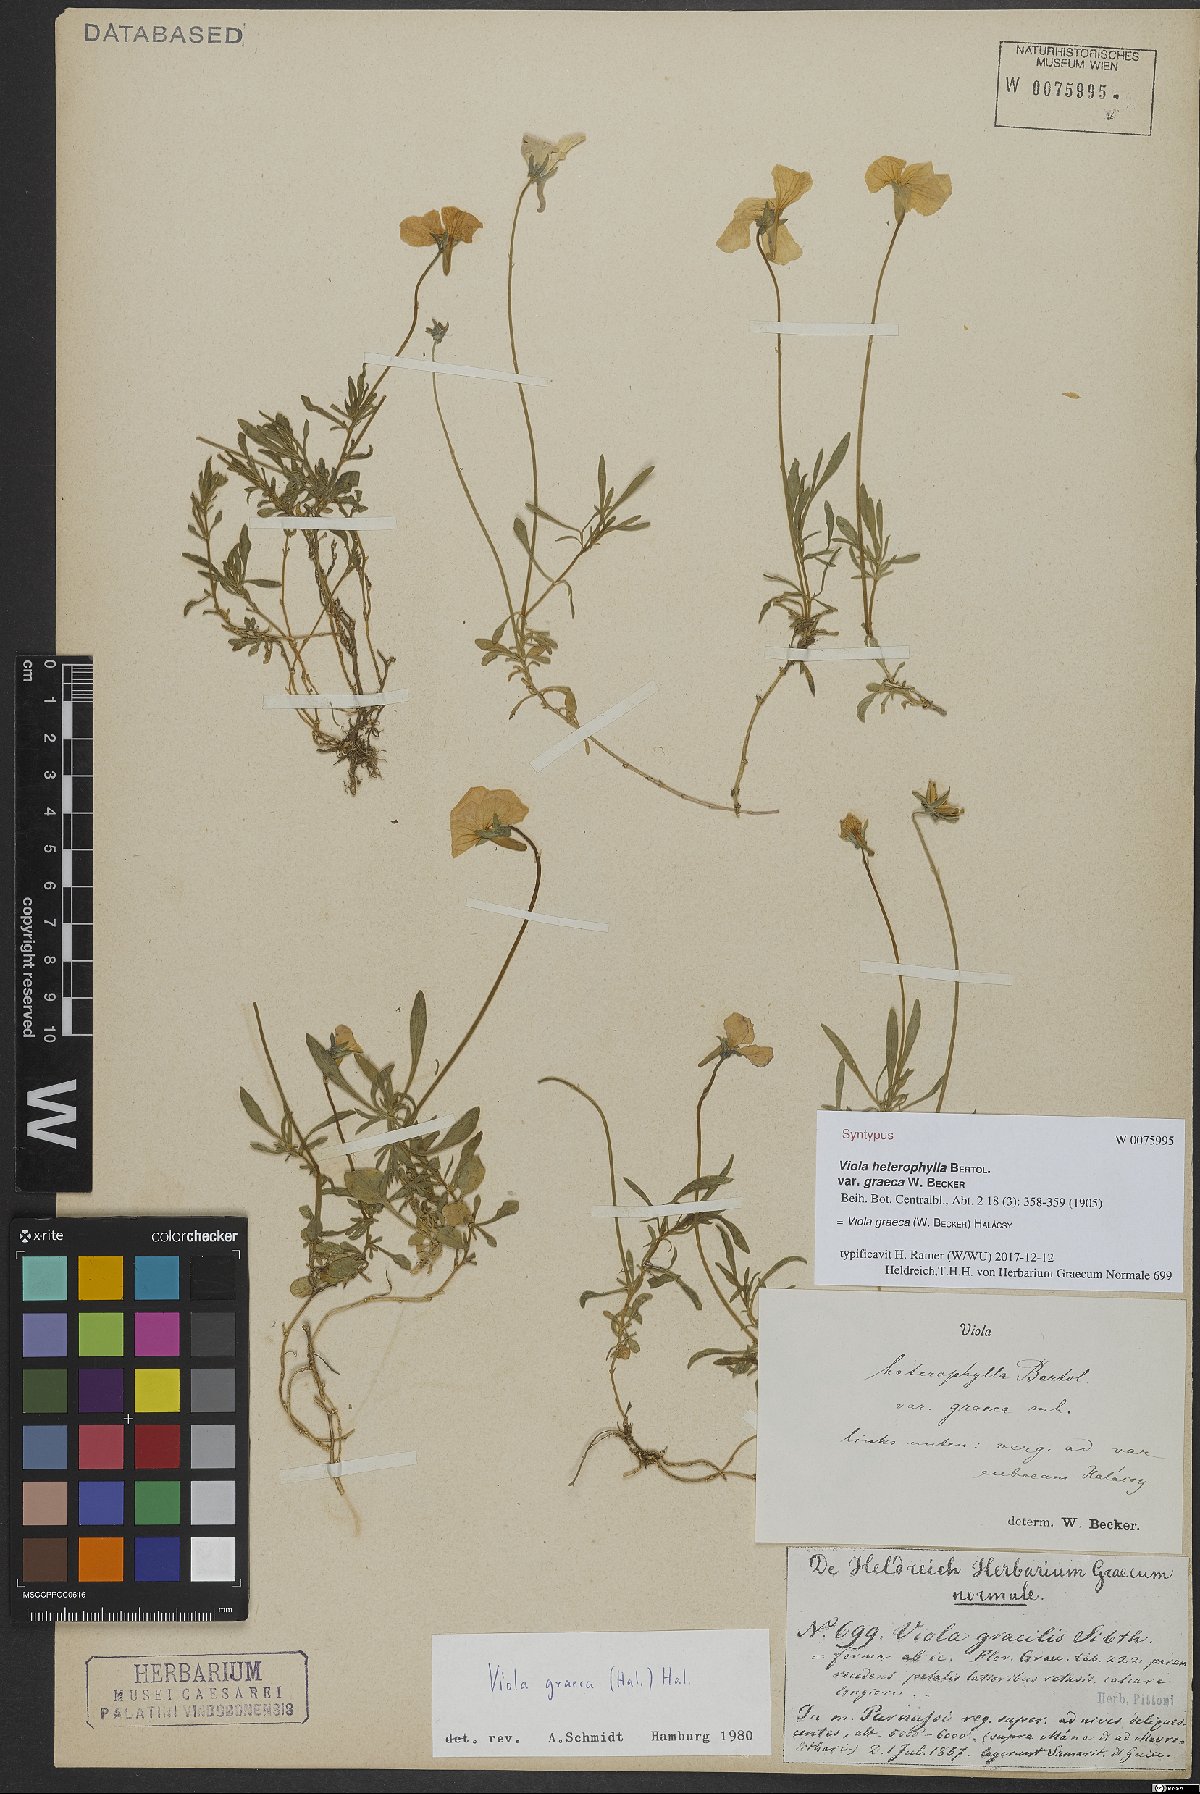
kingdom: Plantae
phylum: Tracheophyta
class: Magnoliopsida
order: Malpighiales
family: Violaceae
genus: Viola
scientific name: Viola graeca
